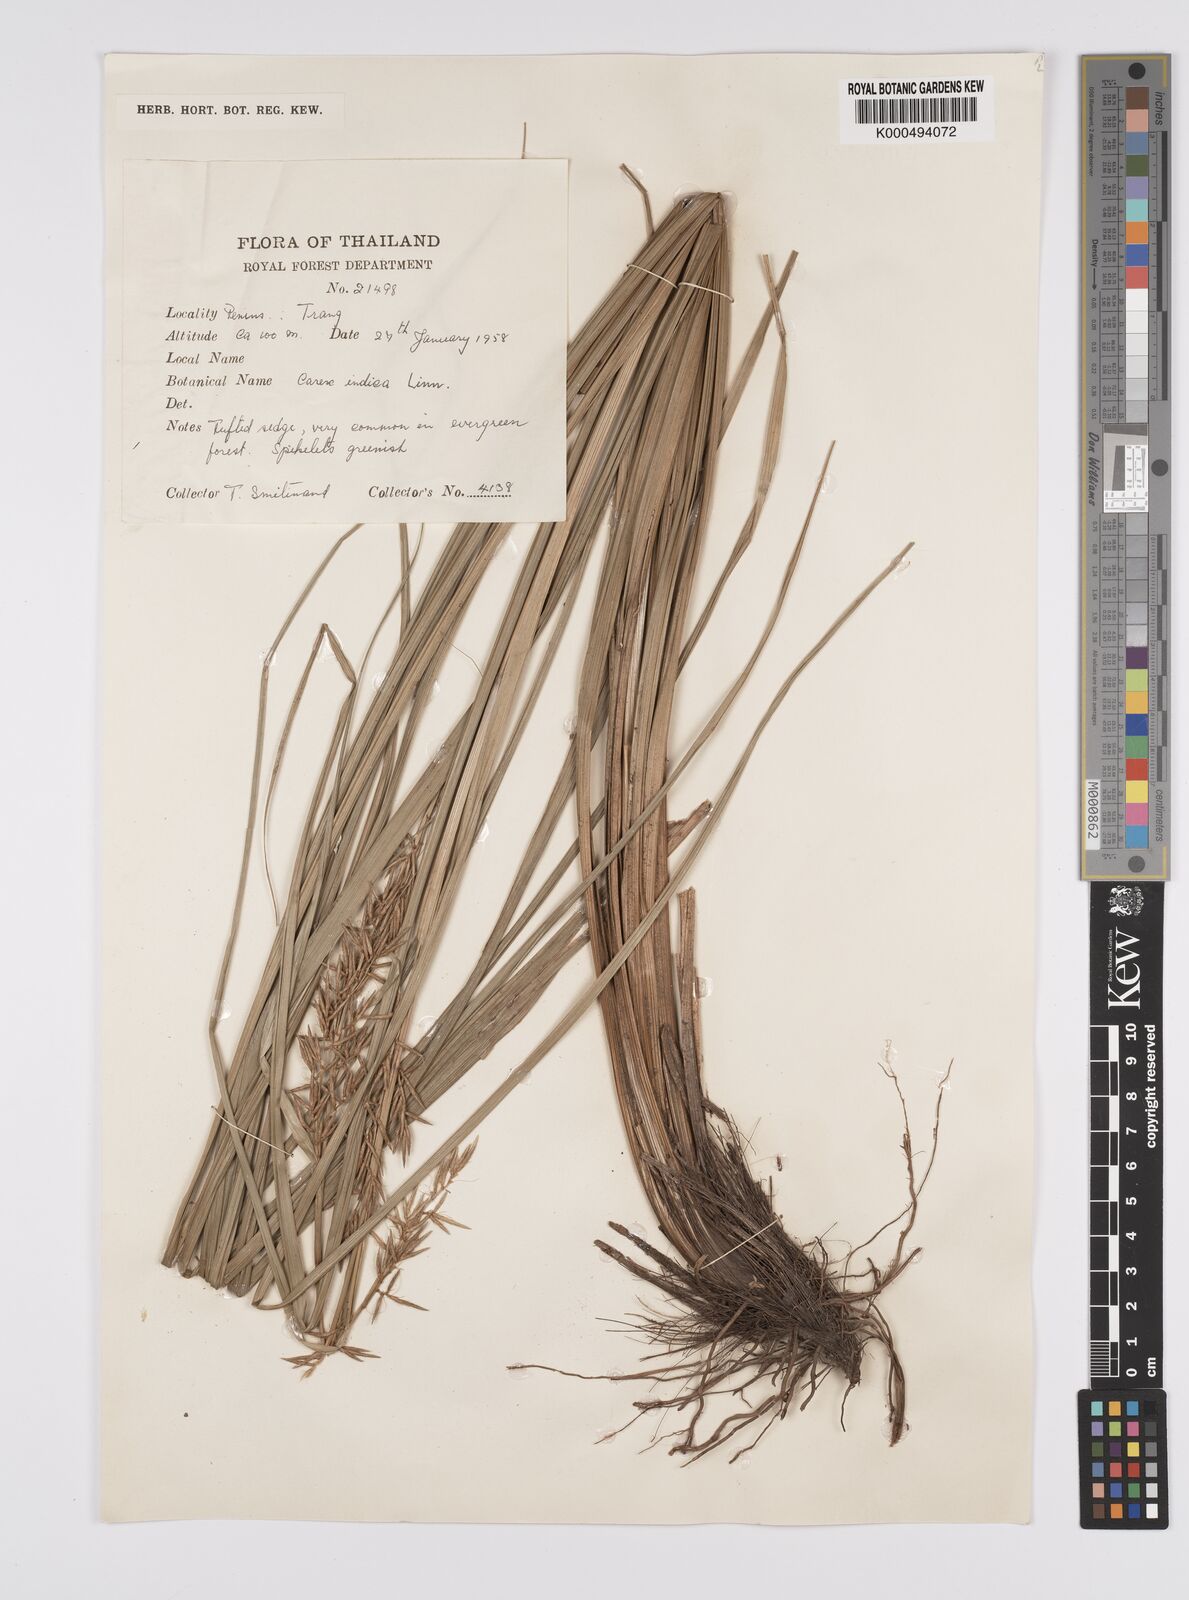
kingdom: Plantae
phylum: Tracheophyta
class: Liliopsida
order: Poales
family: Cyperaceae
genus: Carex
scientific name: Carex indica
